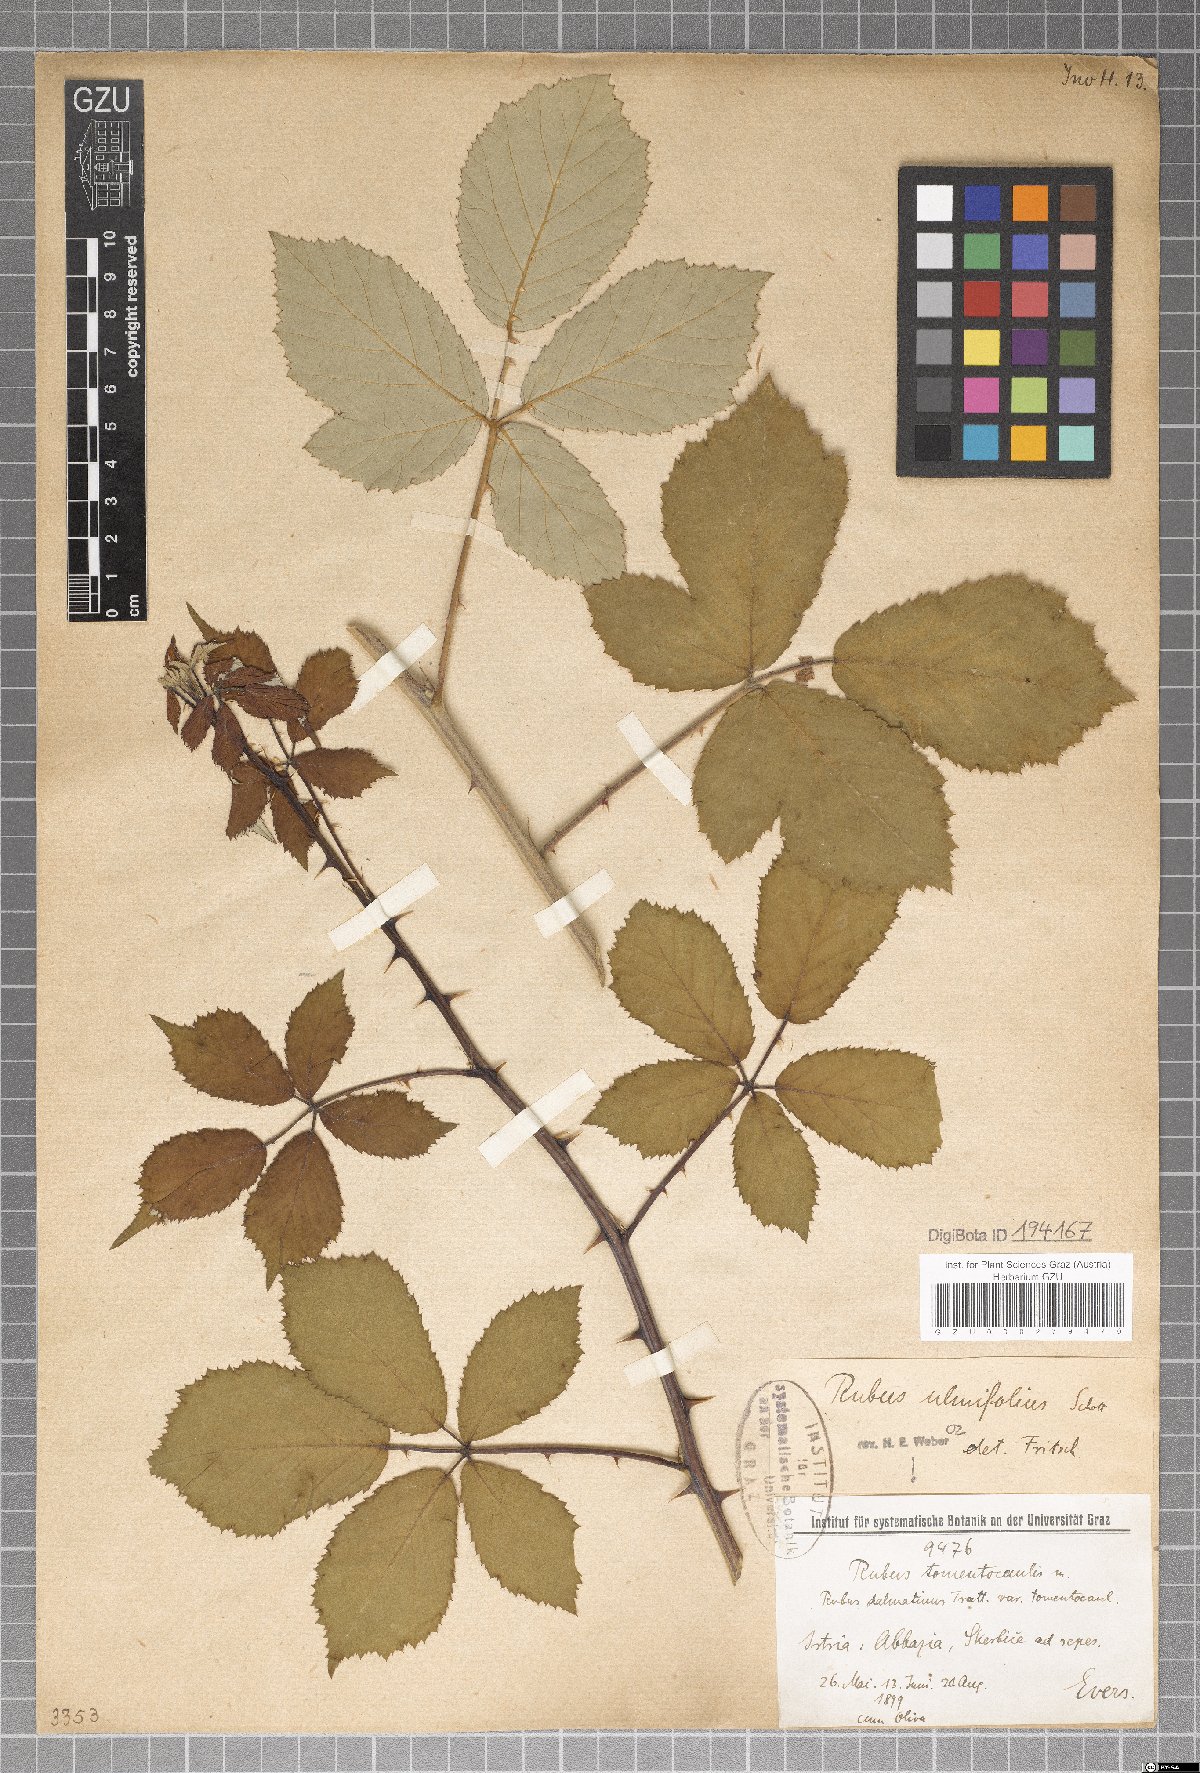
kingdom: Plantae
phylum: Tracheophyta
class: Magnoliopsida
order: Rosales
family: Rosaceae
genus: Rubus
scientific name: Rubus tomentocaulis
